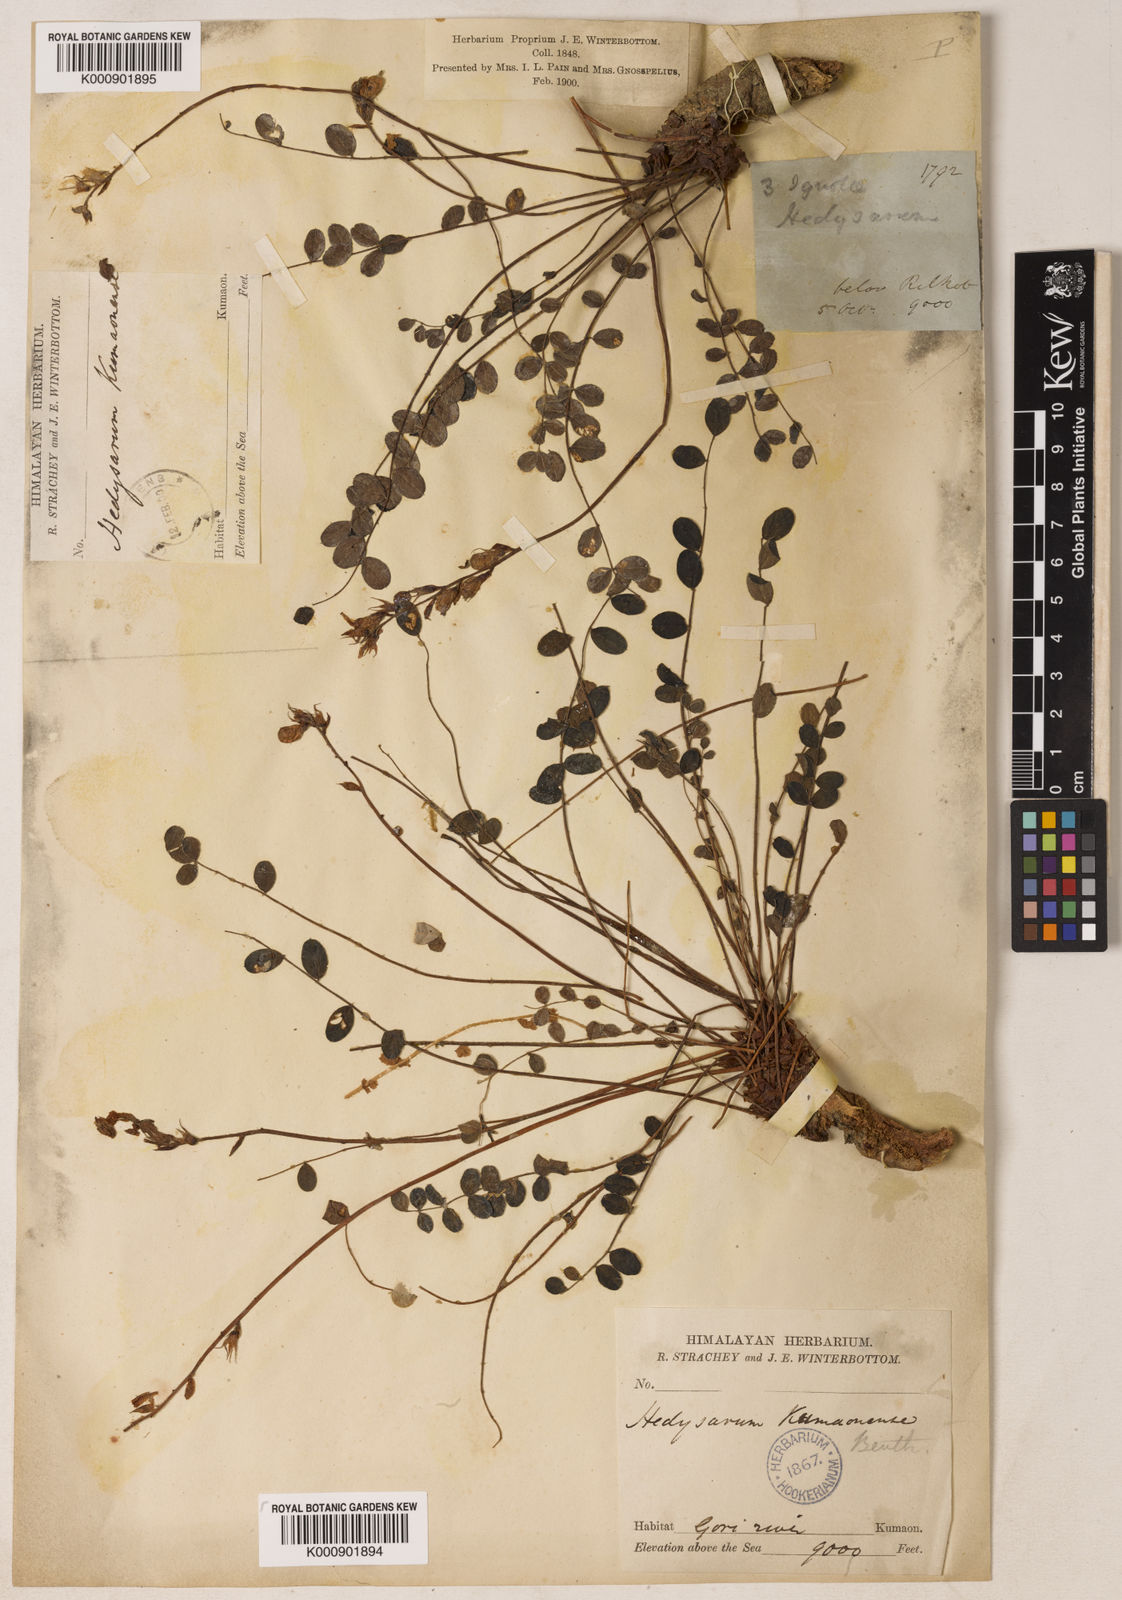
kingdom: Plantae
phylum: Tracheophyta
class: Magnoliopsida
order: Fabales
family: Fabaceae
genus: Hedysarum
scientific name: Hedysarum kumaonense
